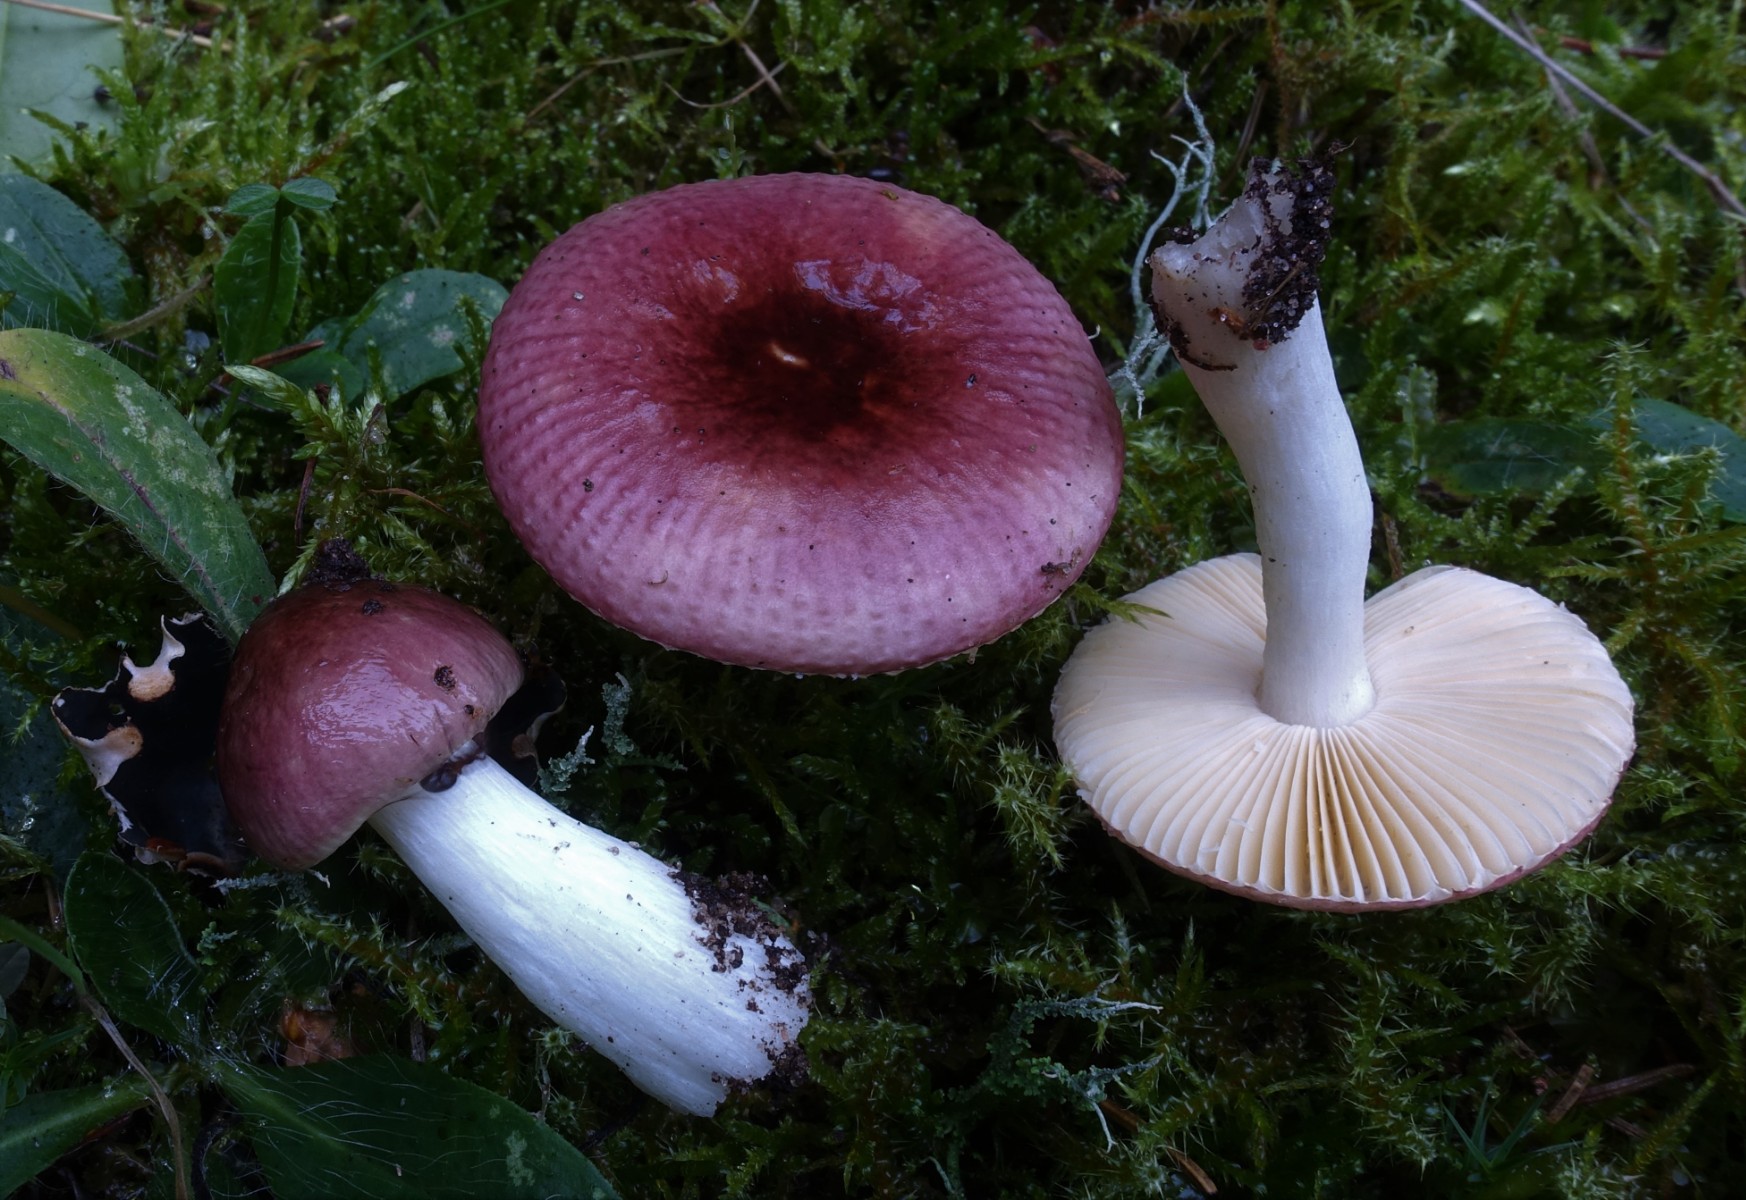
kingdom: Fungi
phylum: Basidiomycota
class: Agaricomycetes
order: Russulales
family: Russulaceae
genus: Russula
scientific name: Russula nauseosa
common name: spinkel skørhat
